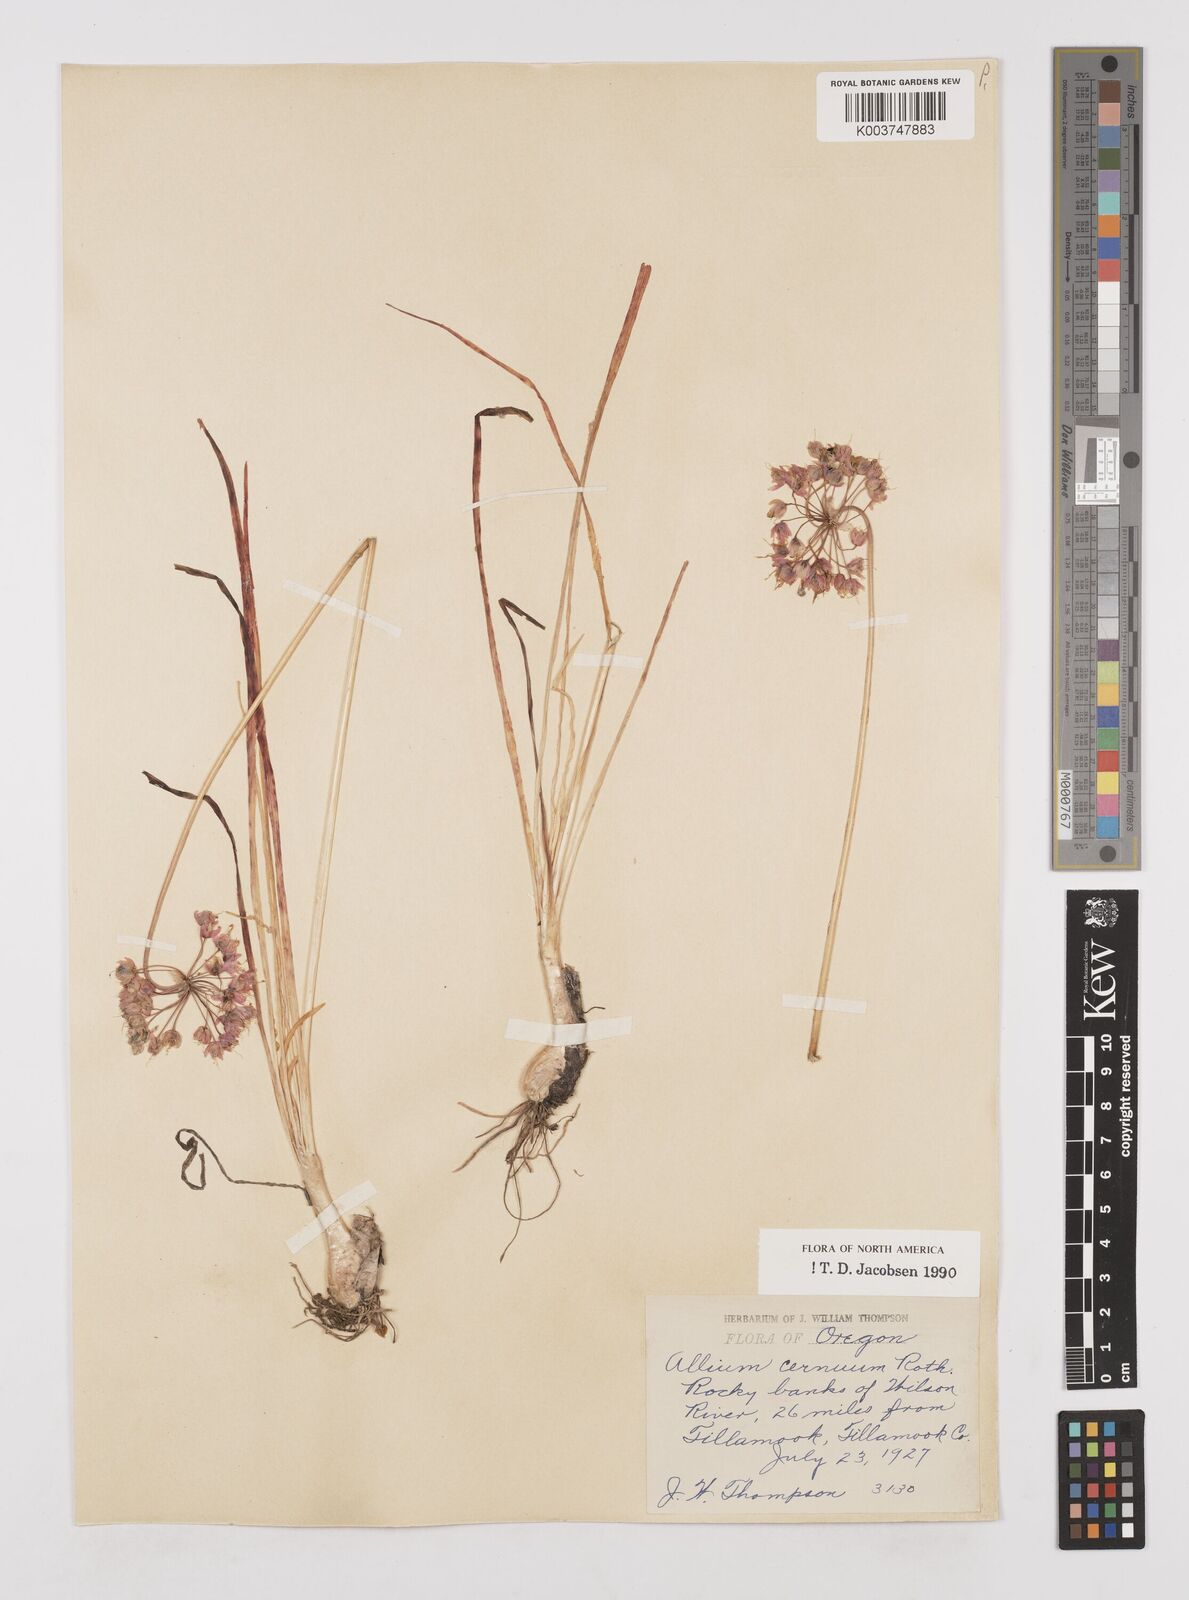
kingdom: Plantae
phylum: Tracheophyta
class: Liliopsida
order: Asparagales
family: Amaryllidaceae
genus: Allium
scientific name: Allium cernuum
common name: Nodding onion
